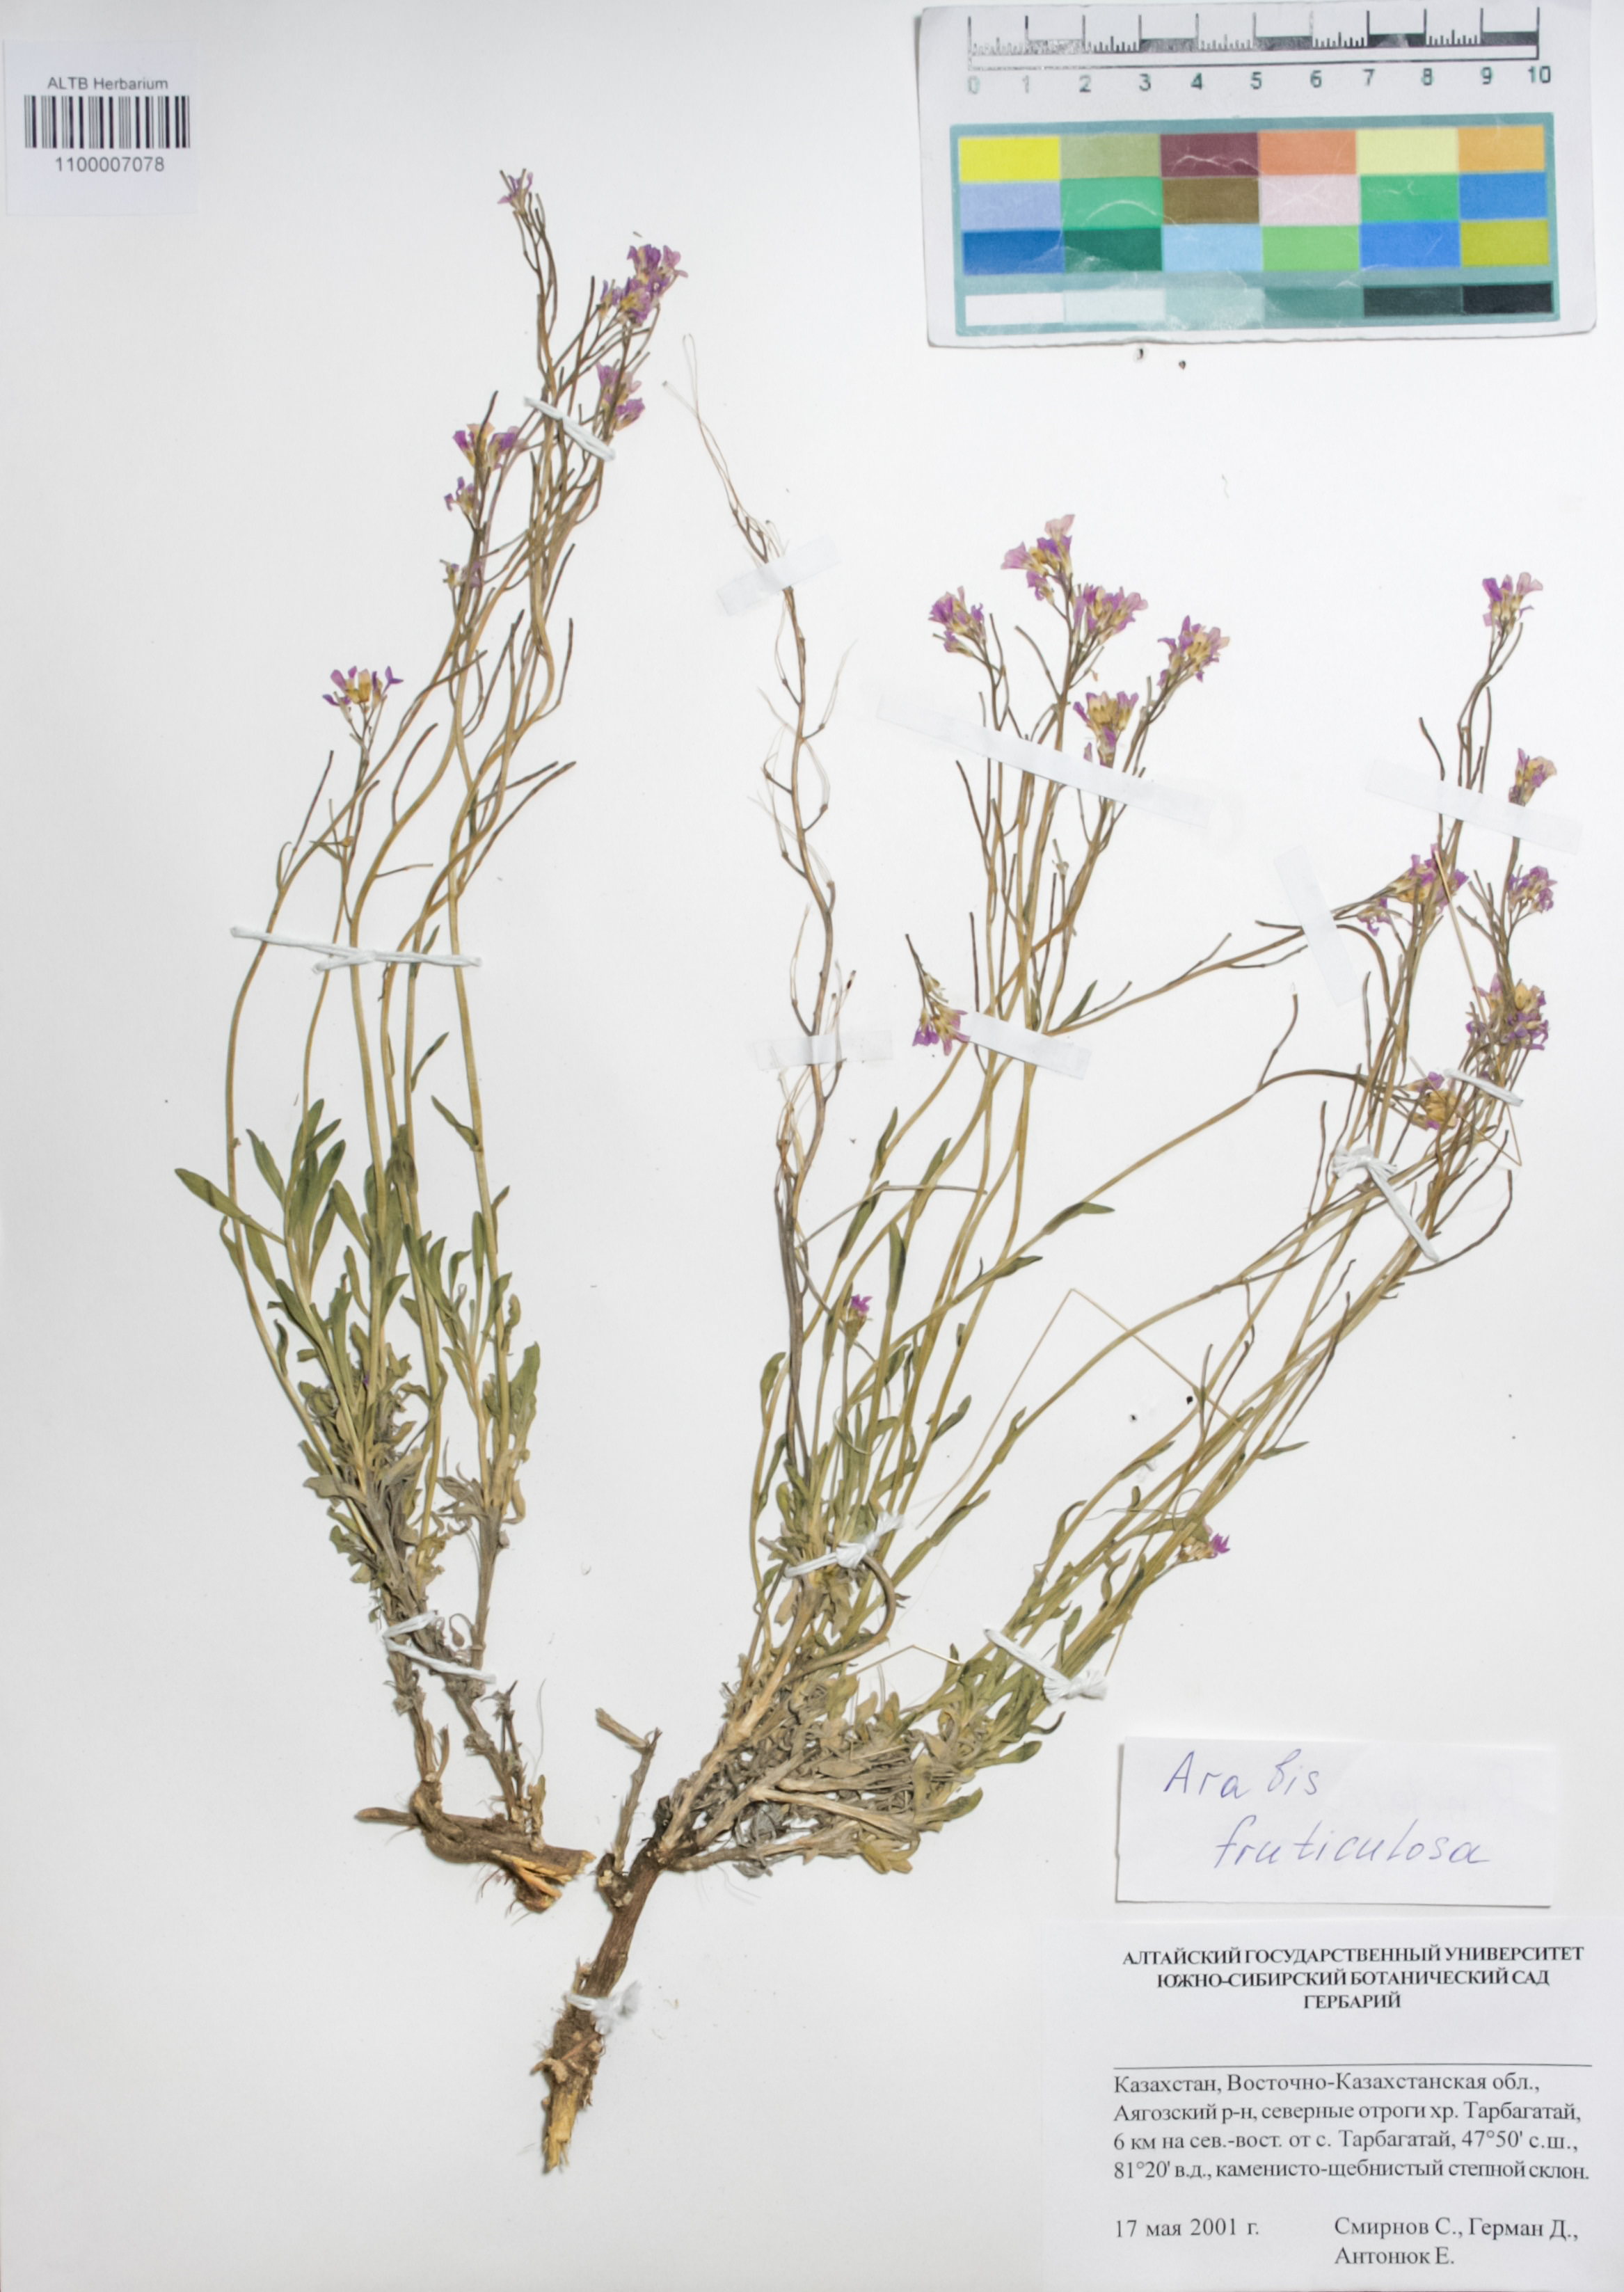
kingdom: Plantae
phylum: Tracheophyta
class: Magnoliopsida
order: Brassicales
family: Brassicaceae
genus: Dendroarabis
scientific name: Dendroarabis fruticulosa
